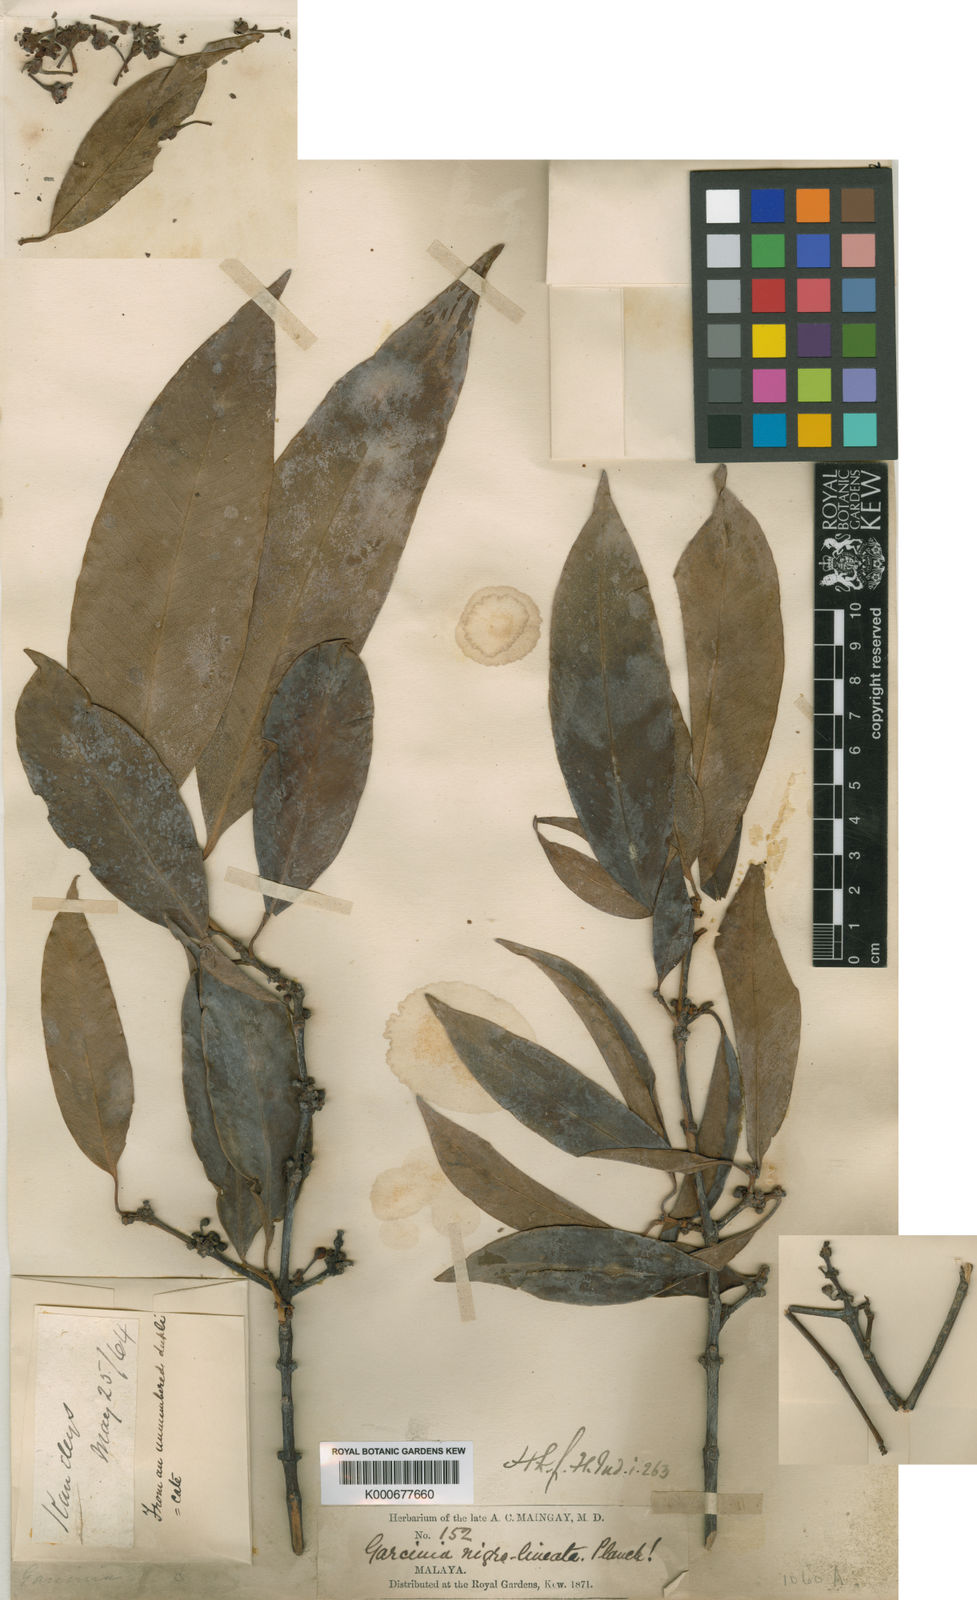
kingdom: Plantae
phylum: Tracheophyta
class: Magnoliopsida
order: Malpighiales
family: Clusiaceae
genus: Garcinia
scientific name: Garcinia nigrolineata
